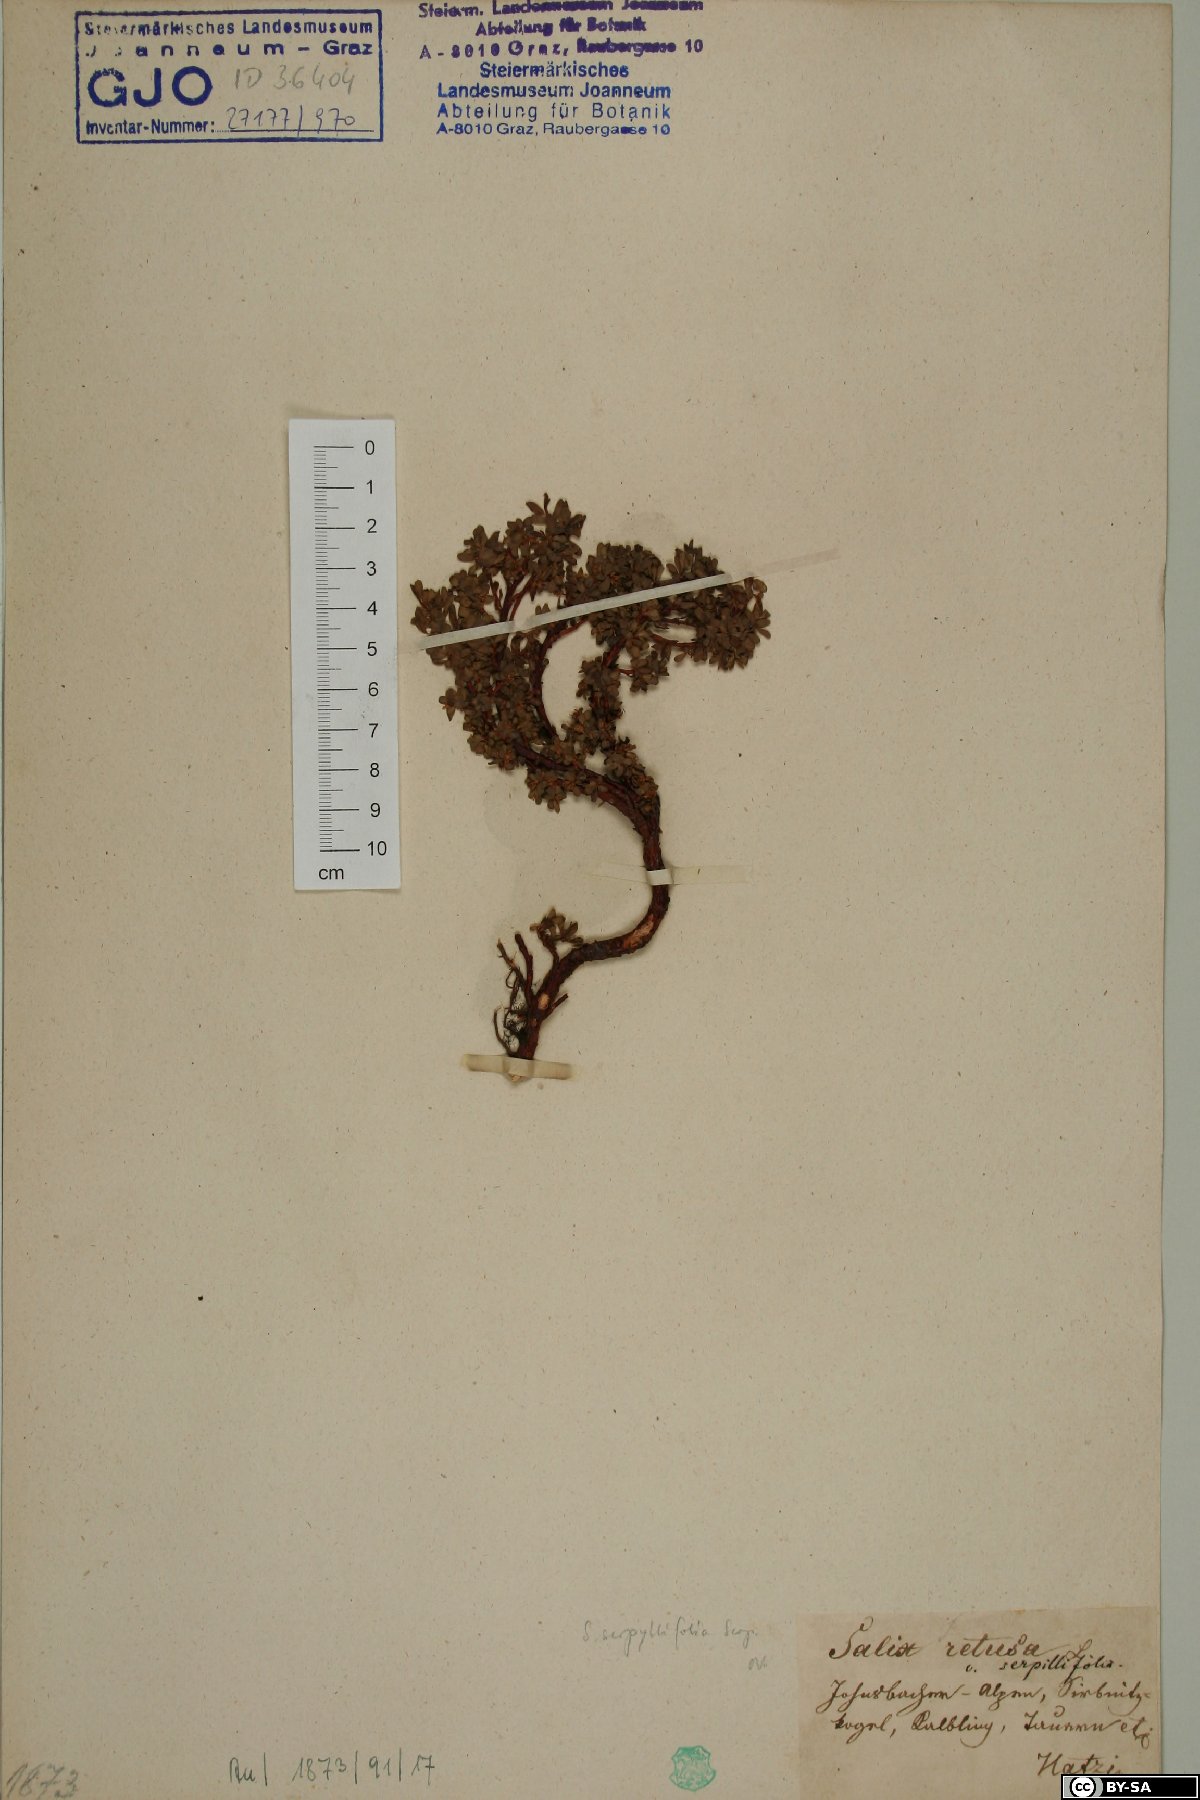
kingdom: Plantae
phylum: Tracheophyta
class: Magnoliopsida
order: Malpighiales
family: Salicaceae
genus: Salix
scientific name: Salix serpillifolia
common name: Thyme-leaf willow
